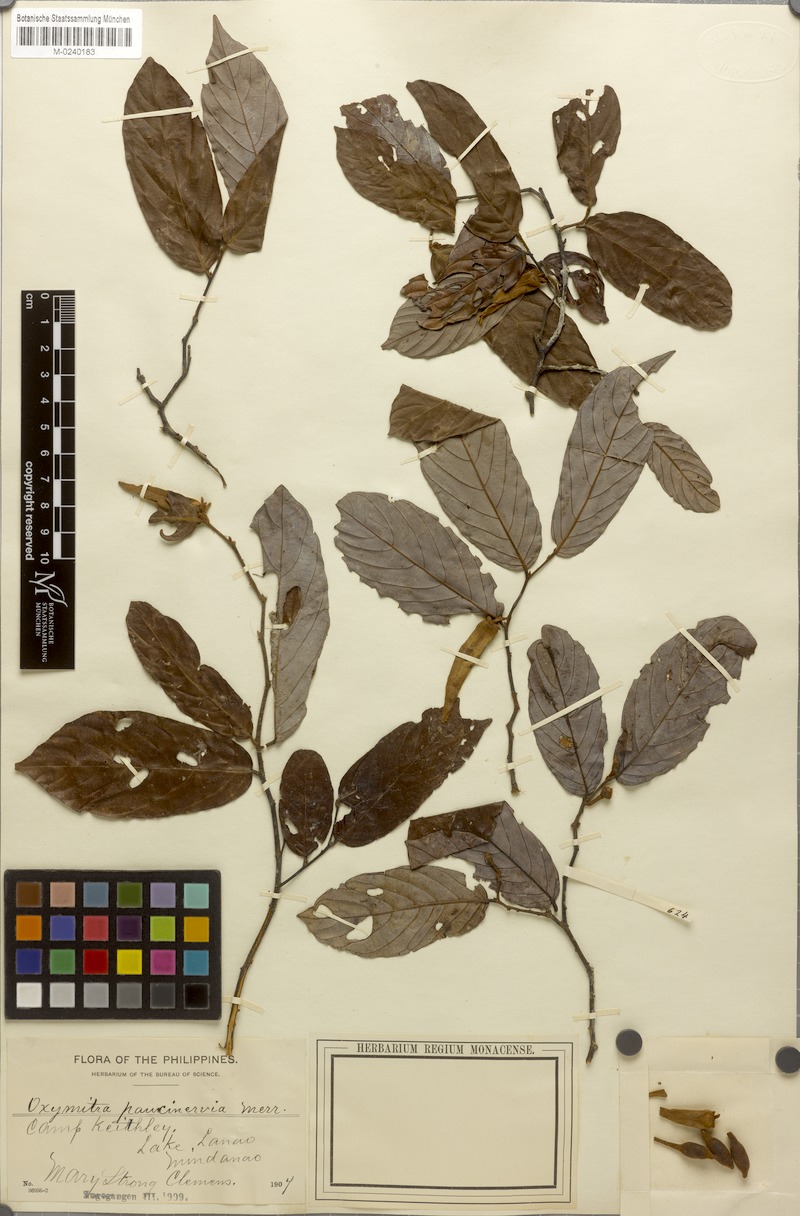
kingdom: Plantae
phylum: Tracheophyta
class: Magnoliopsida
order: Magnoliales
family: Annonaceae
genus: Meiogyne
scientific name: Meiogyne virgata
